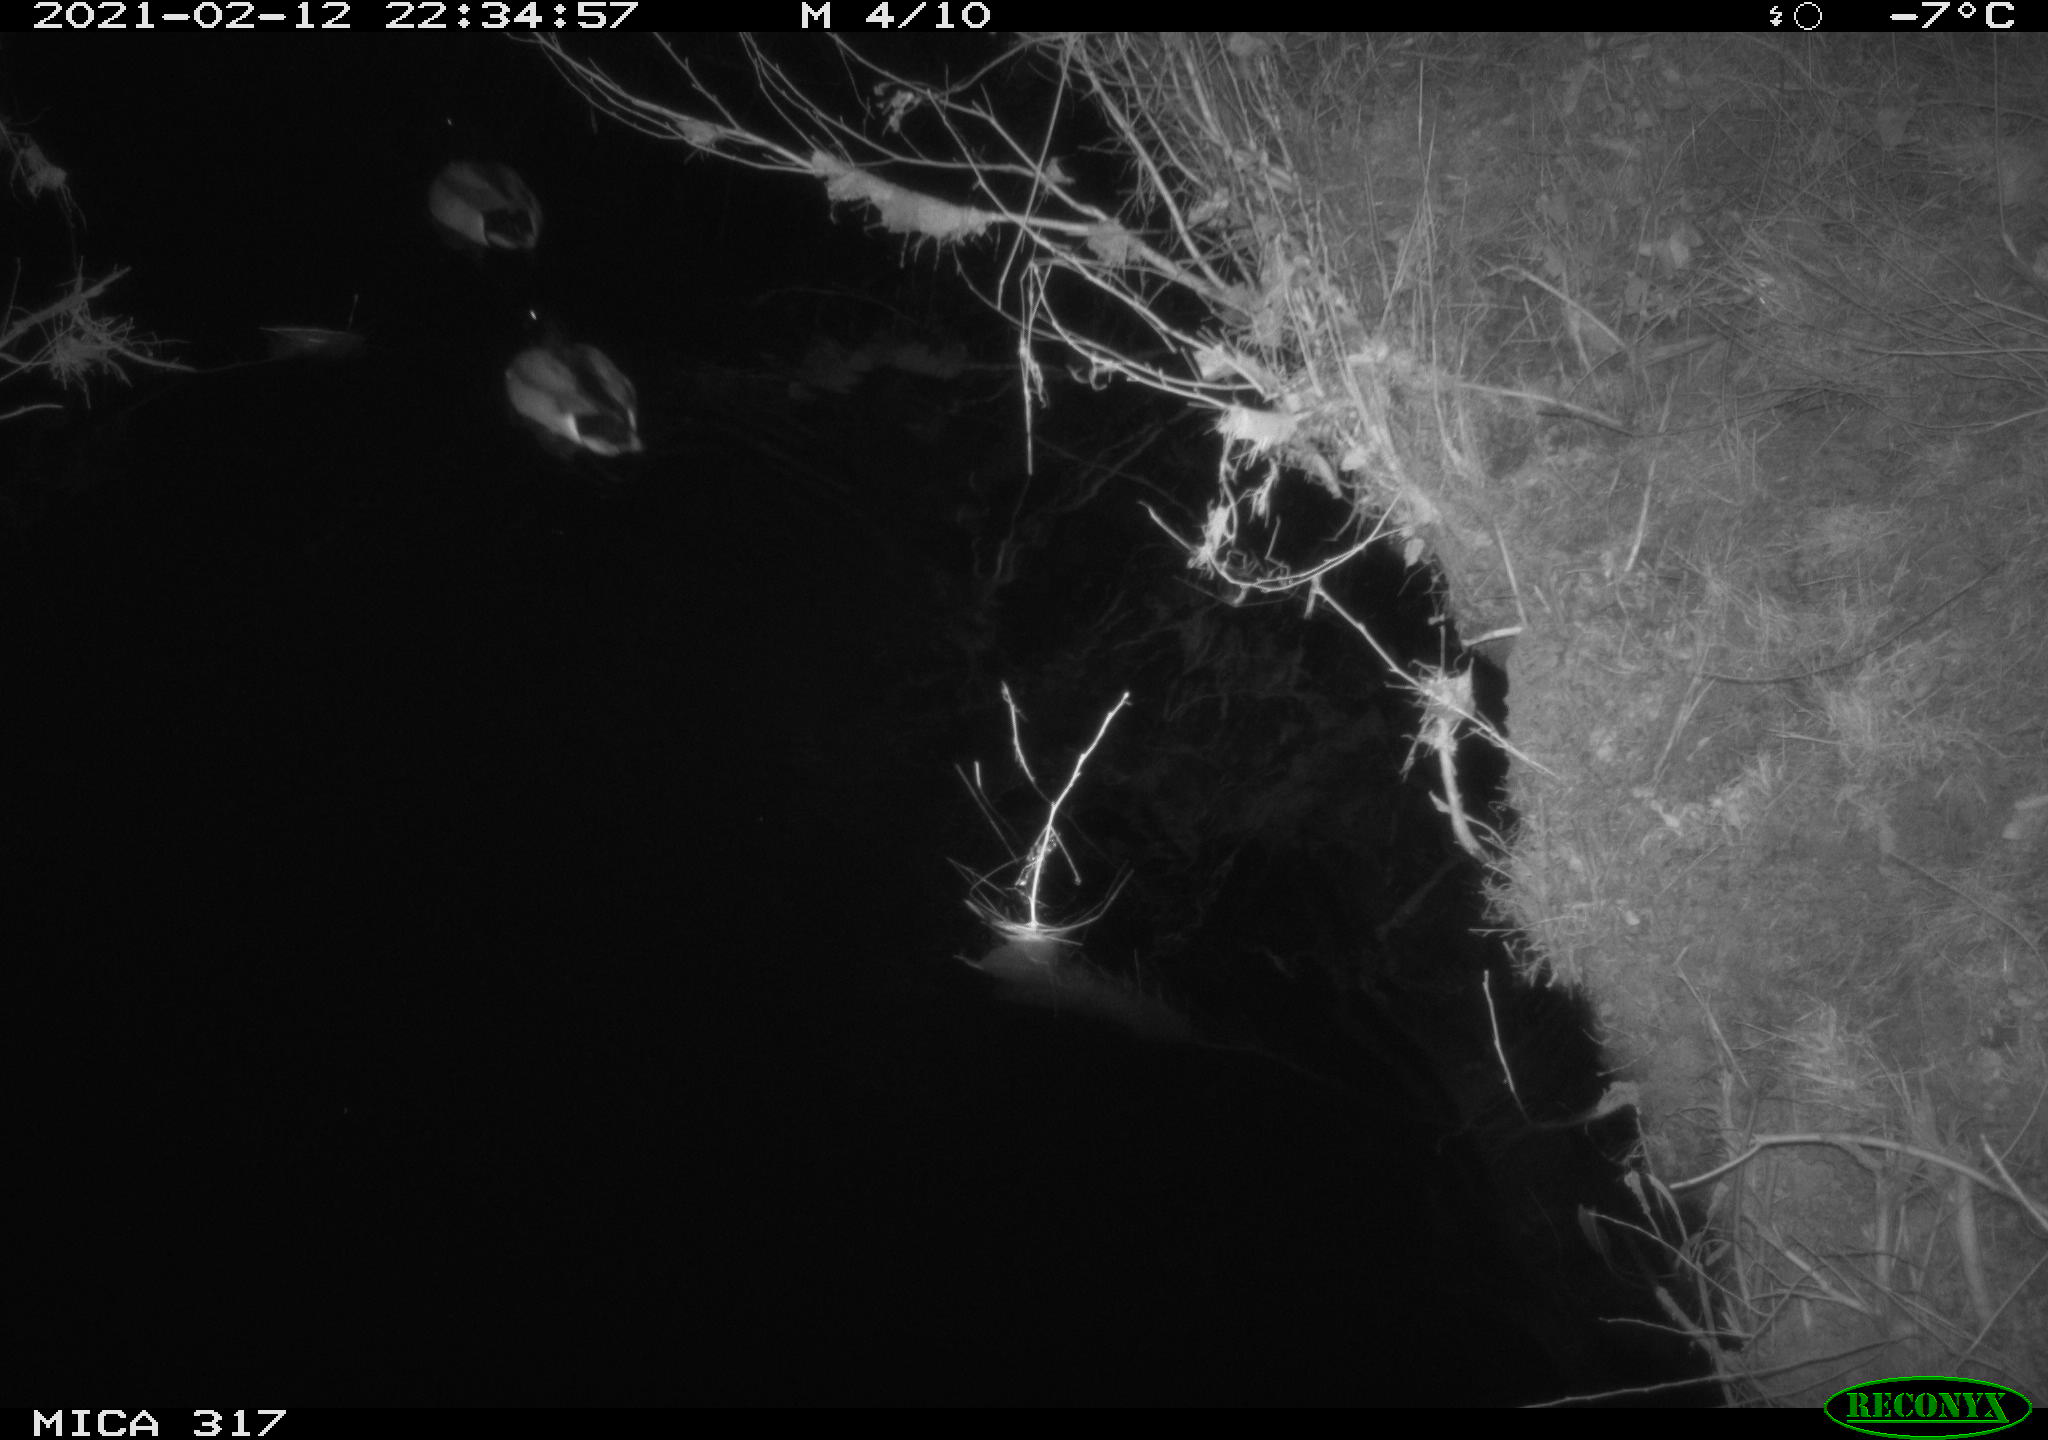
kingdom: Animalia
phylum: Chordata
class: Aves
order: Anseriformes
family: Anatidae
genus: Anas
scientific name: Anas platyrhynchos
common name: Mallard
